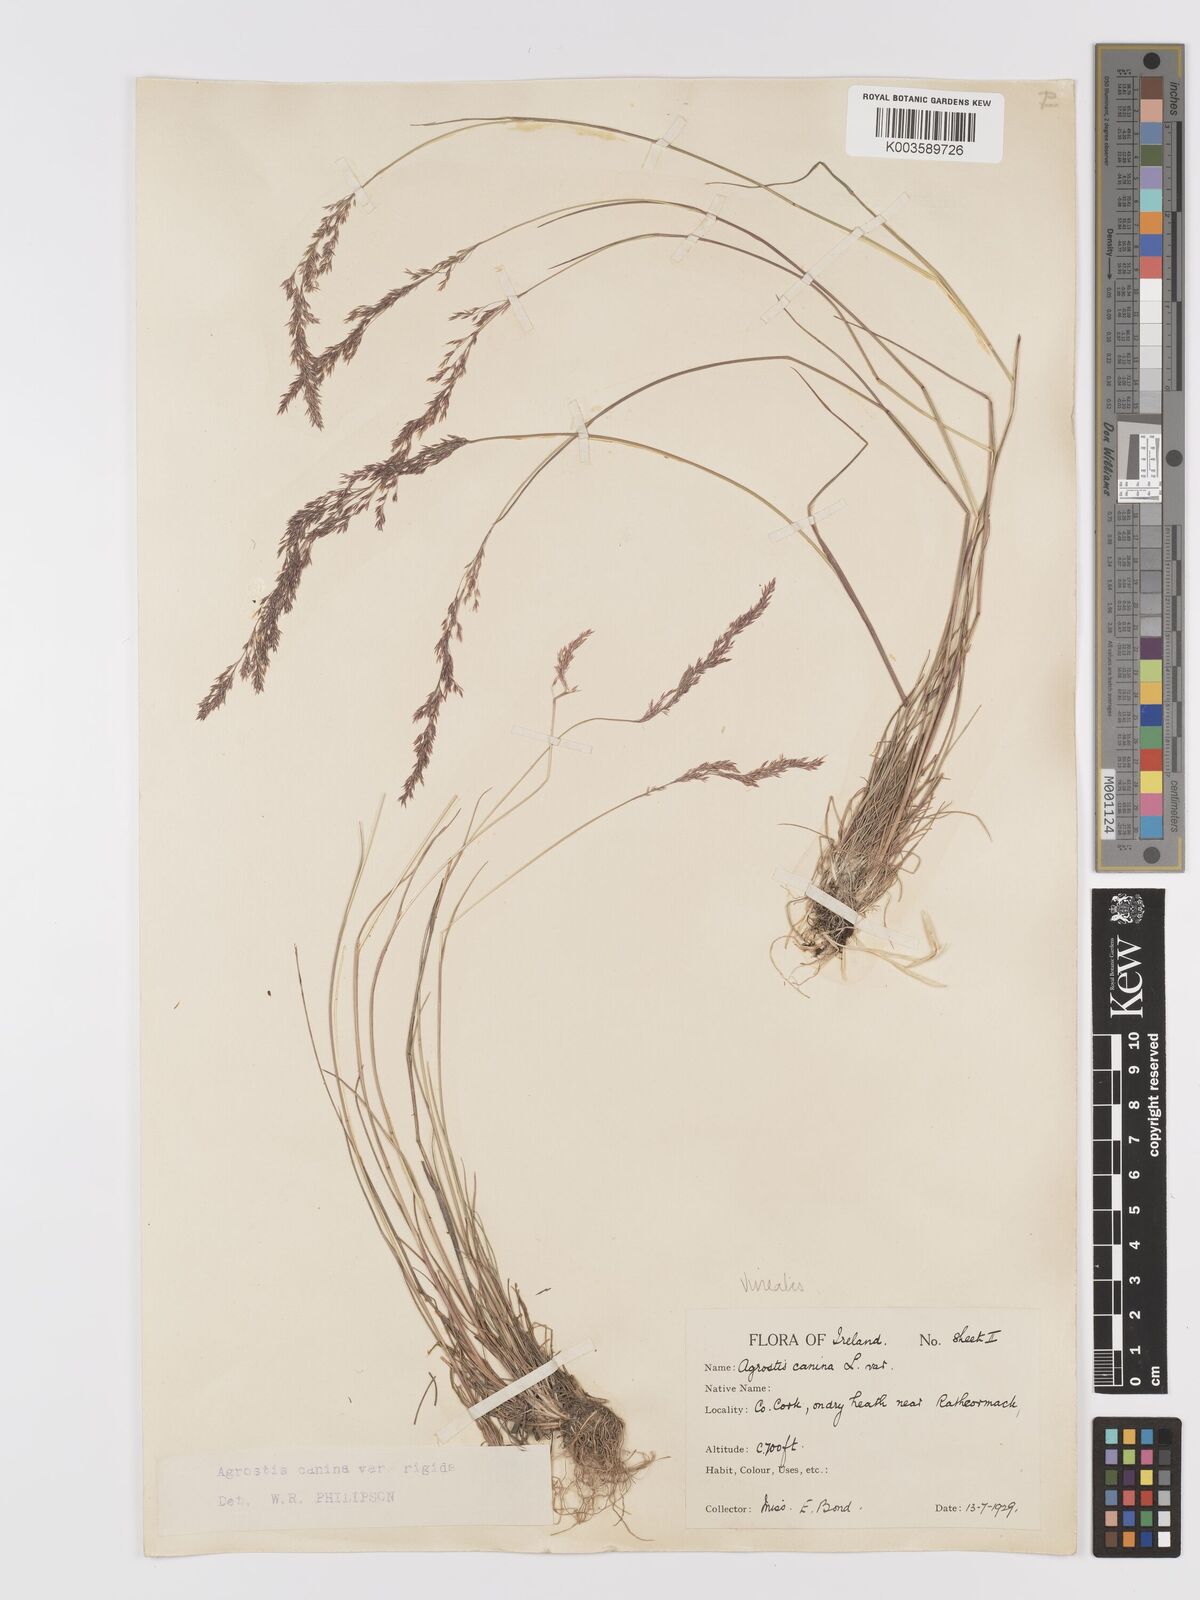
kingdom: Plantae
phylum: Tracheophyta
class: Liliopsida
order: Poales
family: Poaceae
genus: Agrostis
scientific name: Agrostis
